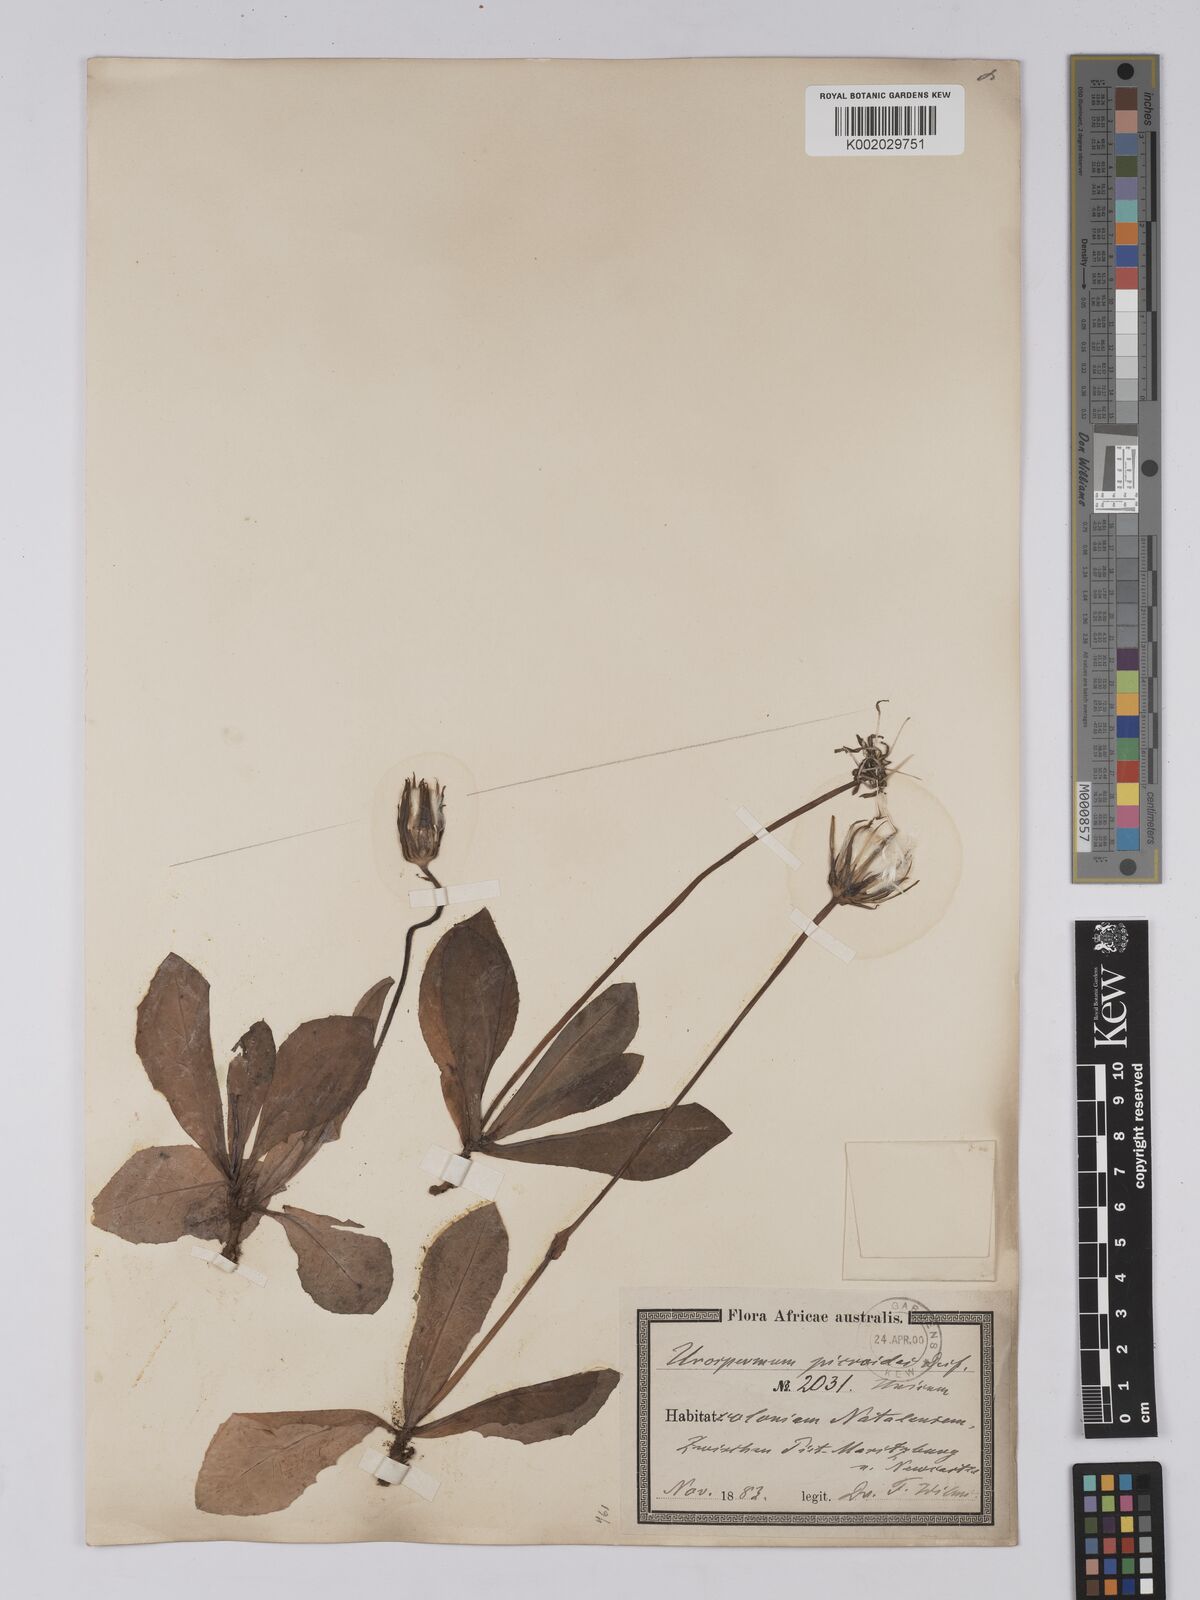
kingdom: Plantae
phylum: Tracheophyta
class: Magnoliopsida
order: Asterales
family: Asteraceae
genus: Urospermum
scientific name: Urospermum picroides
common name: False hawkbit
